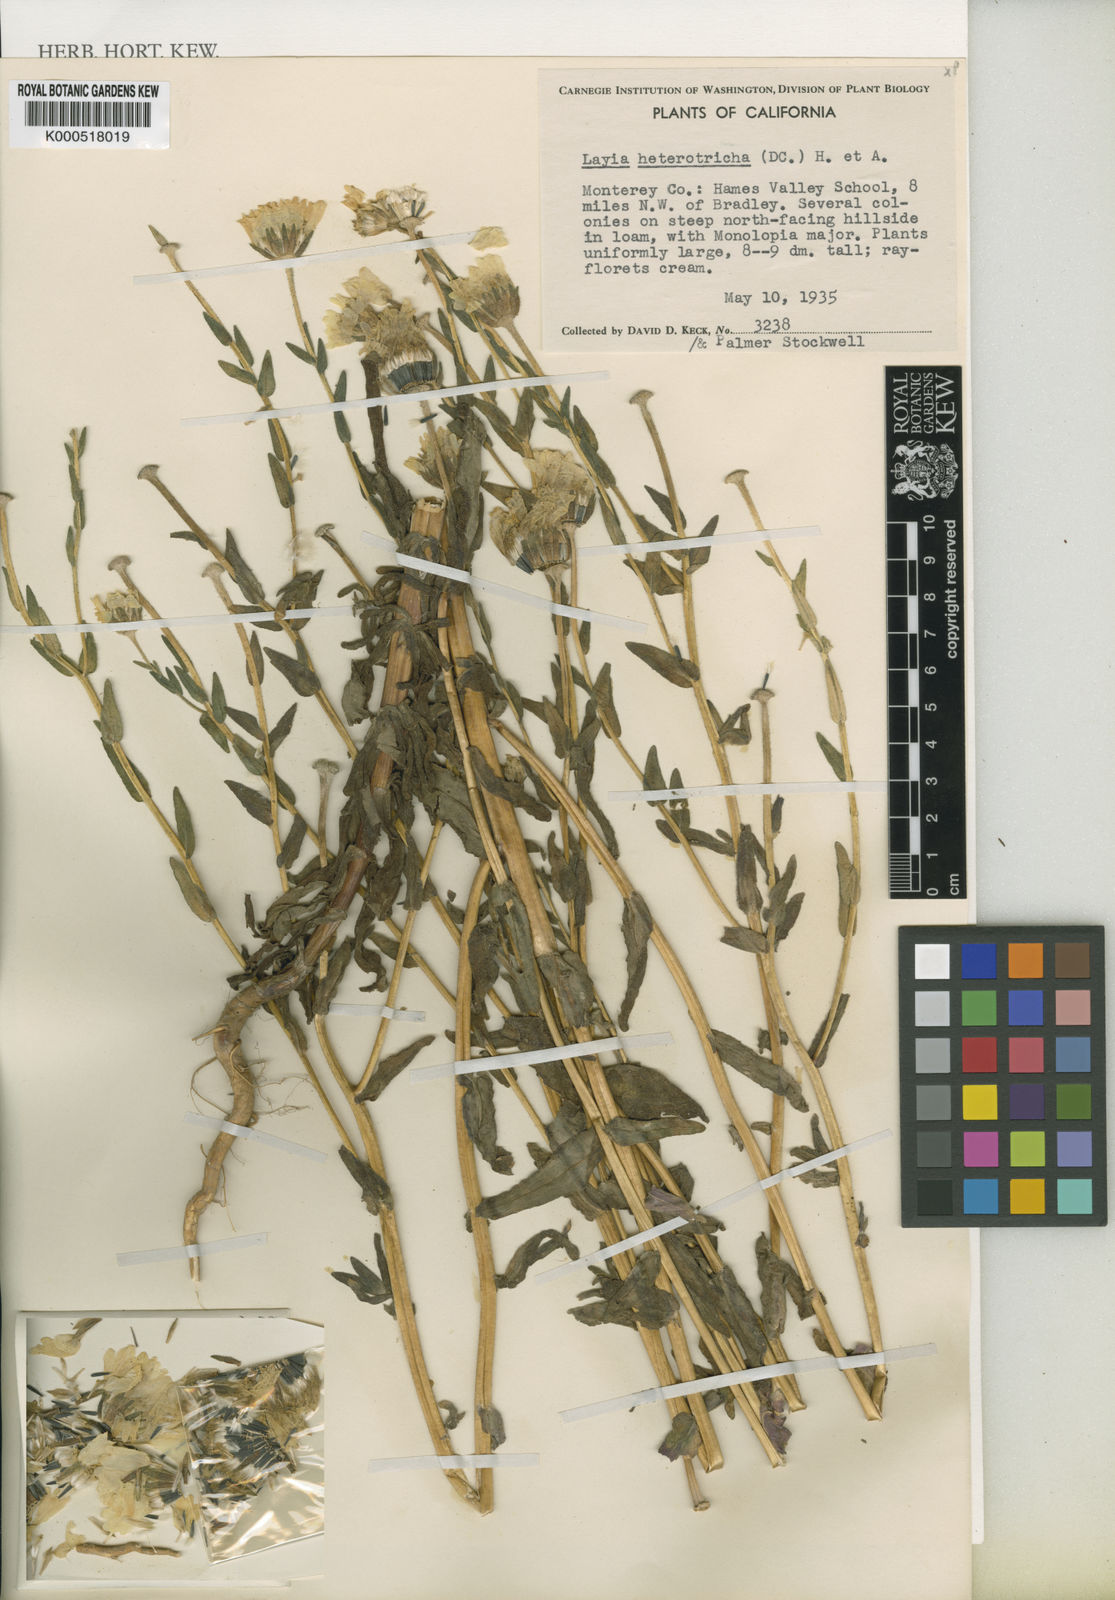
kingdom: Plantae
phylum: Tracheophyta
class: Magnoliopsida
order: Asterales
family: Asteraceae
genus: Layia
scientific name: Layia heterotricha
